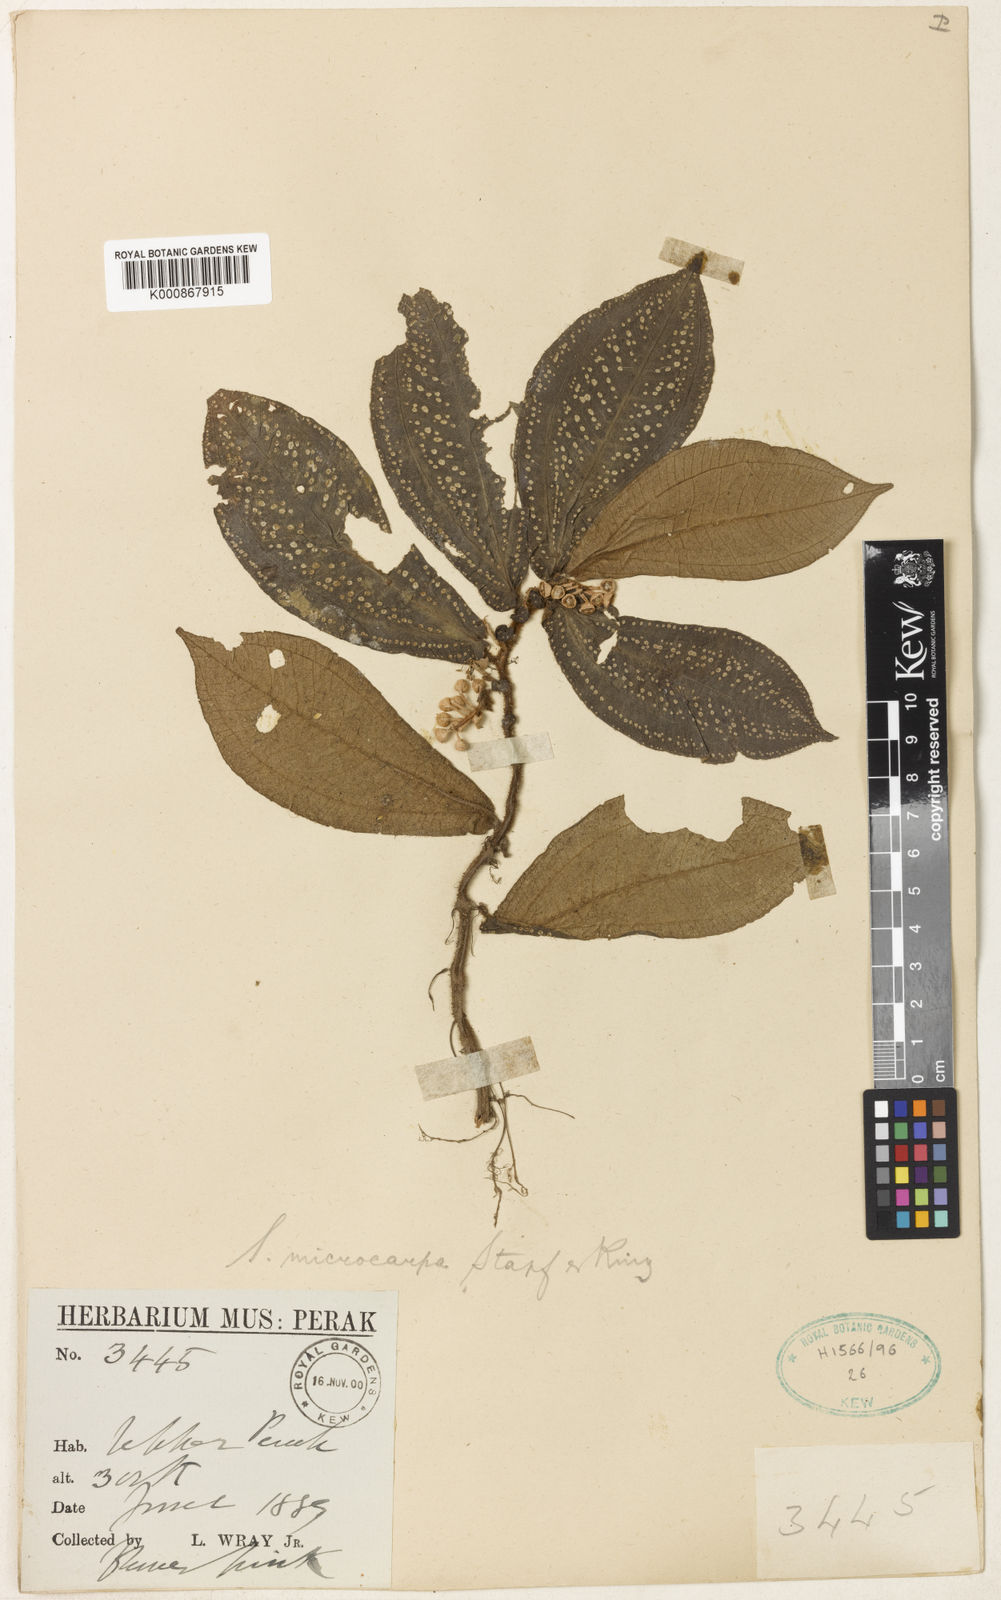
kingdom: Plantae
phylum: Tracheophyta
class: Magnoliopsida
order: Myrtales
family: Melastomataceae
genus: Sonerila
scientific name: Sonerila microcarpa
